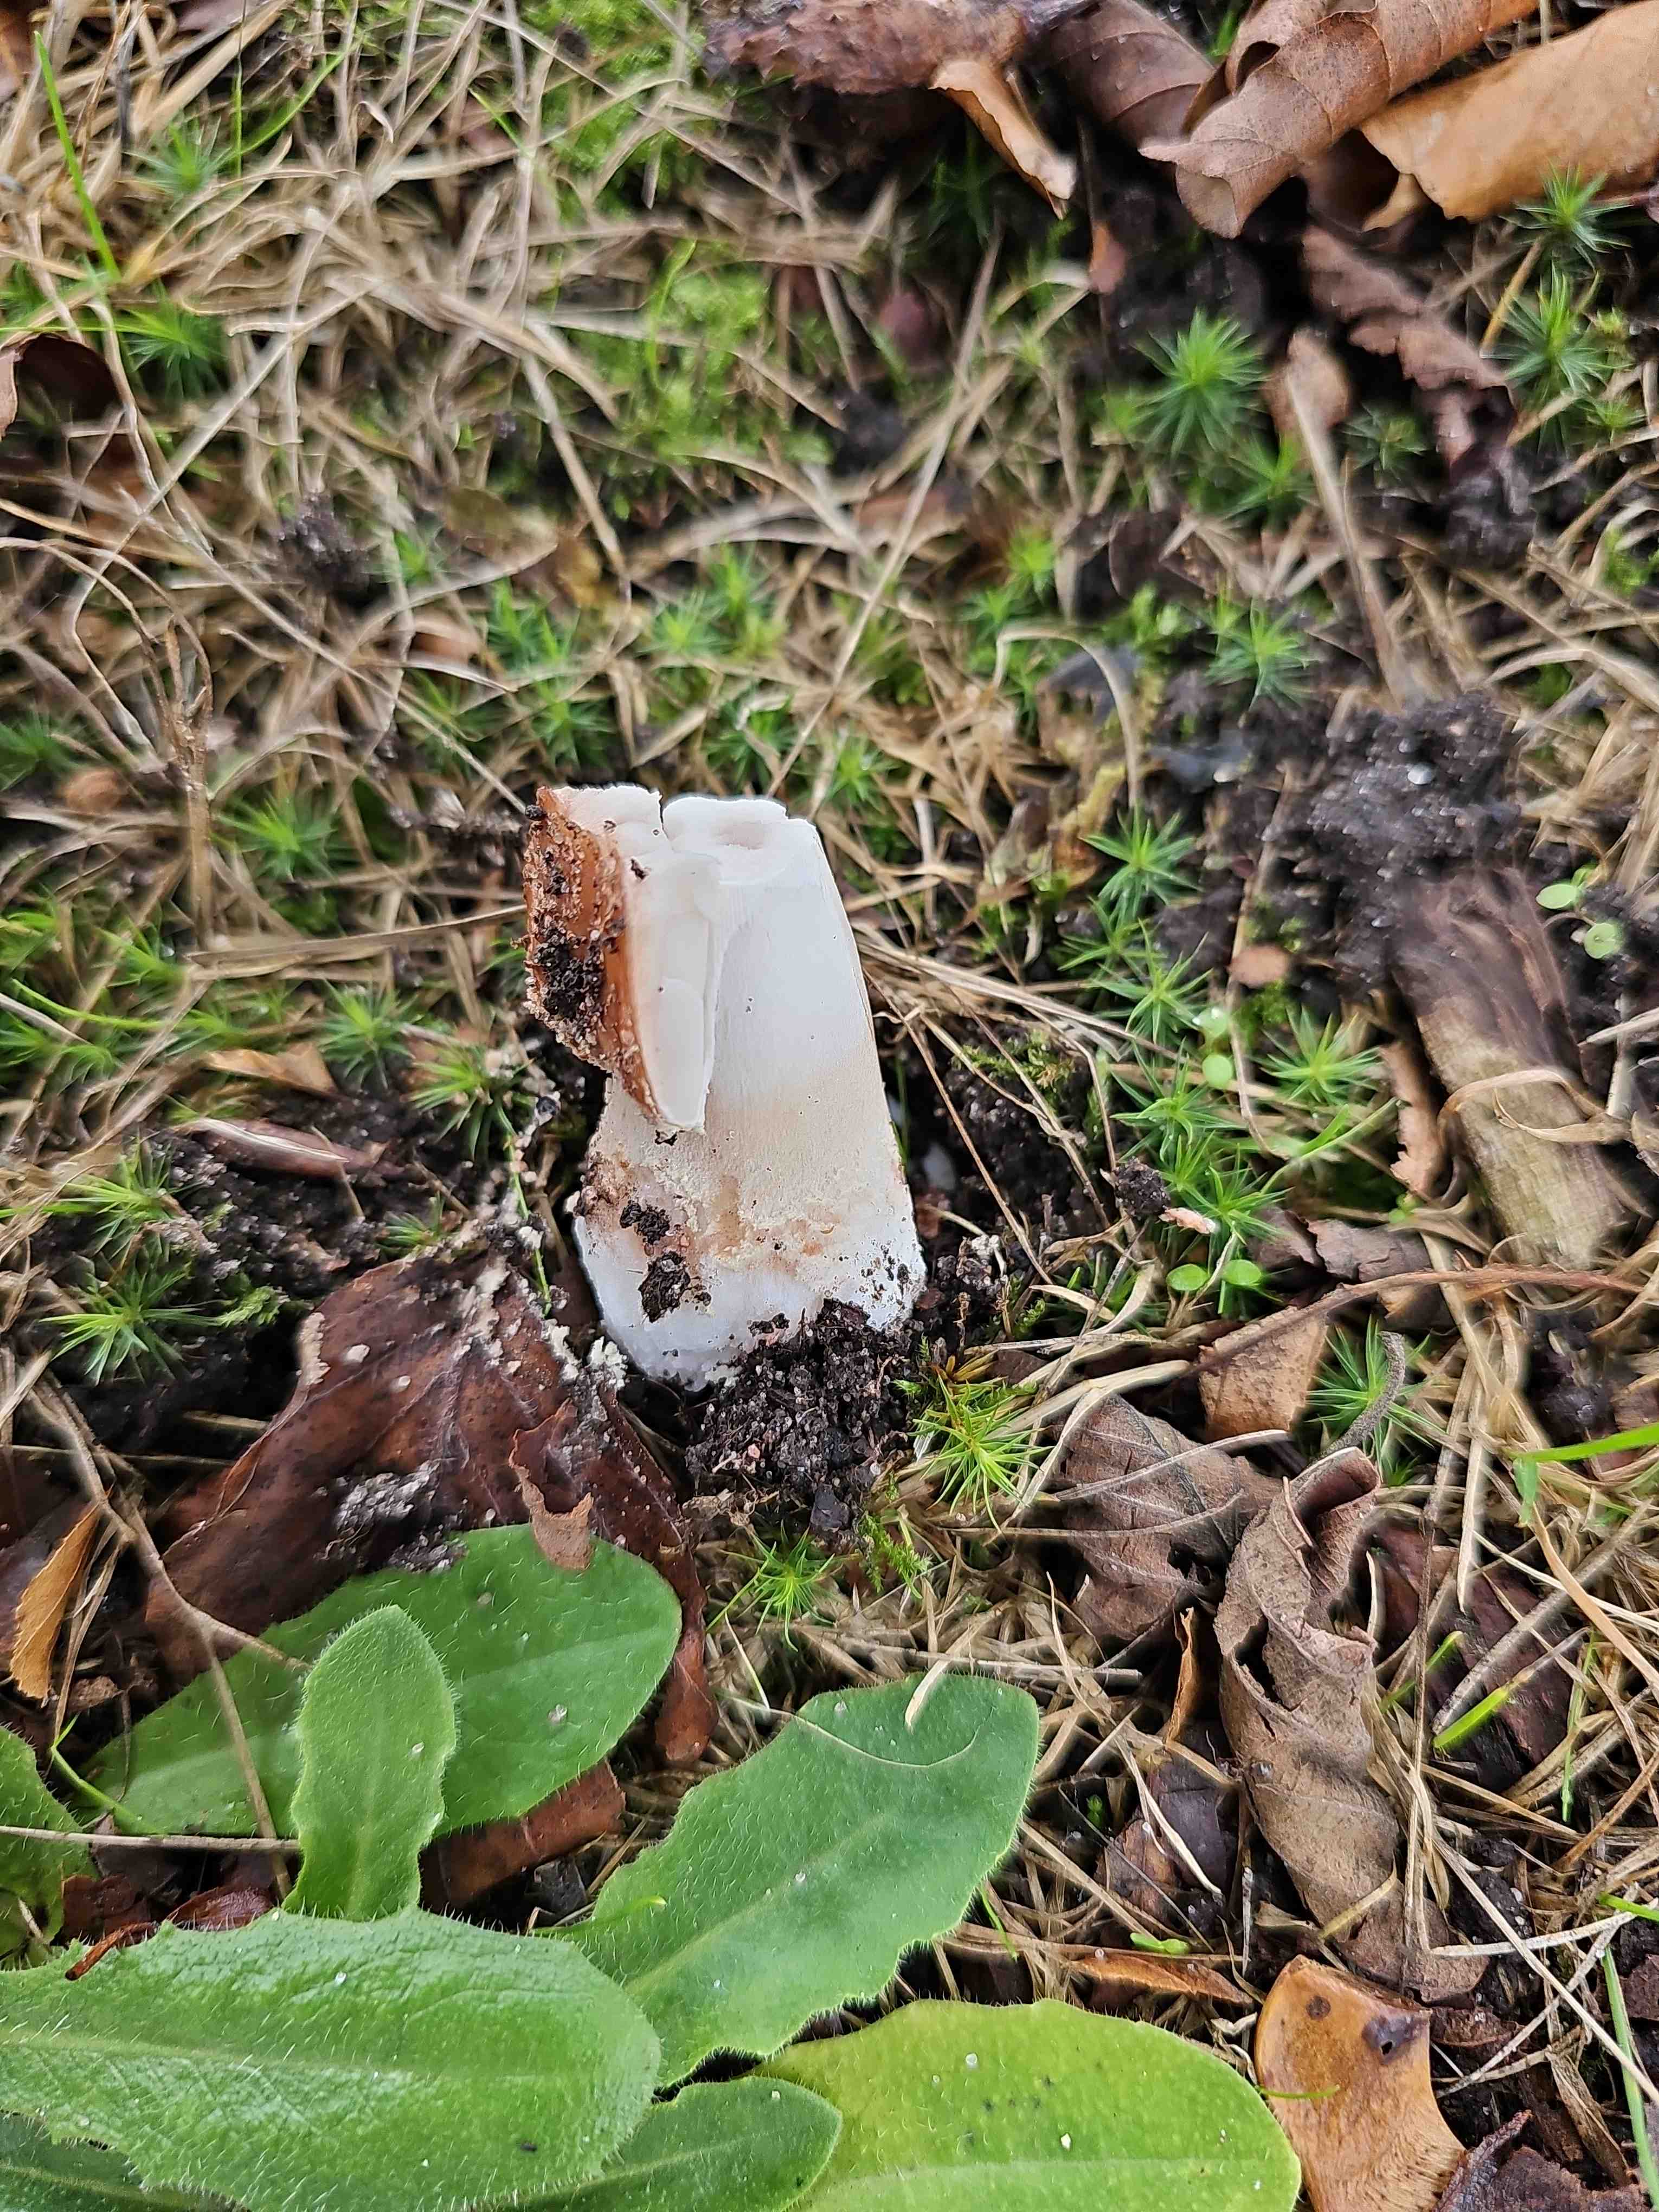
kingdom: Fungi
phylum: Basidiomycota
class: Agaricomycetes
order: Agaricales
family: Amanitaceae
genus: Amanita
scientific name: Amanita rubescens
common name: rødmende fluesvamp
